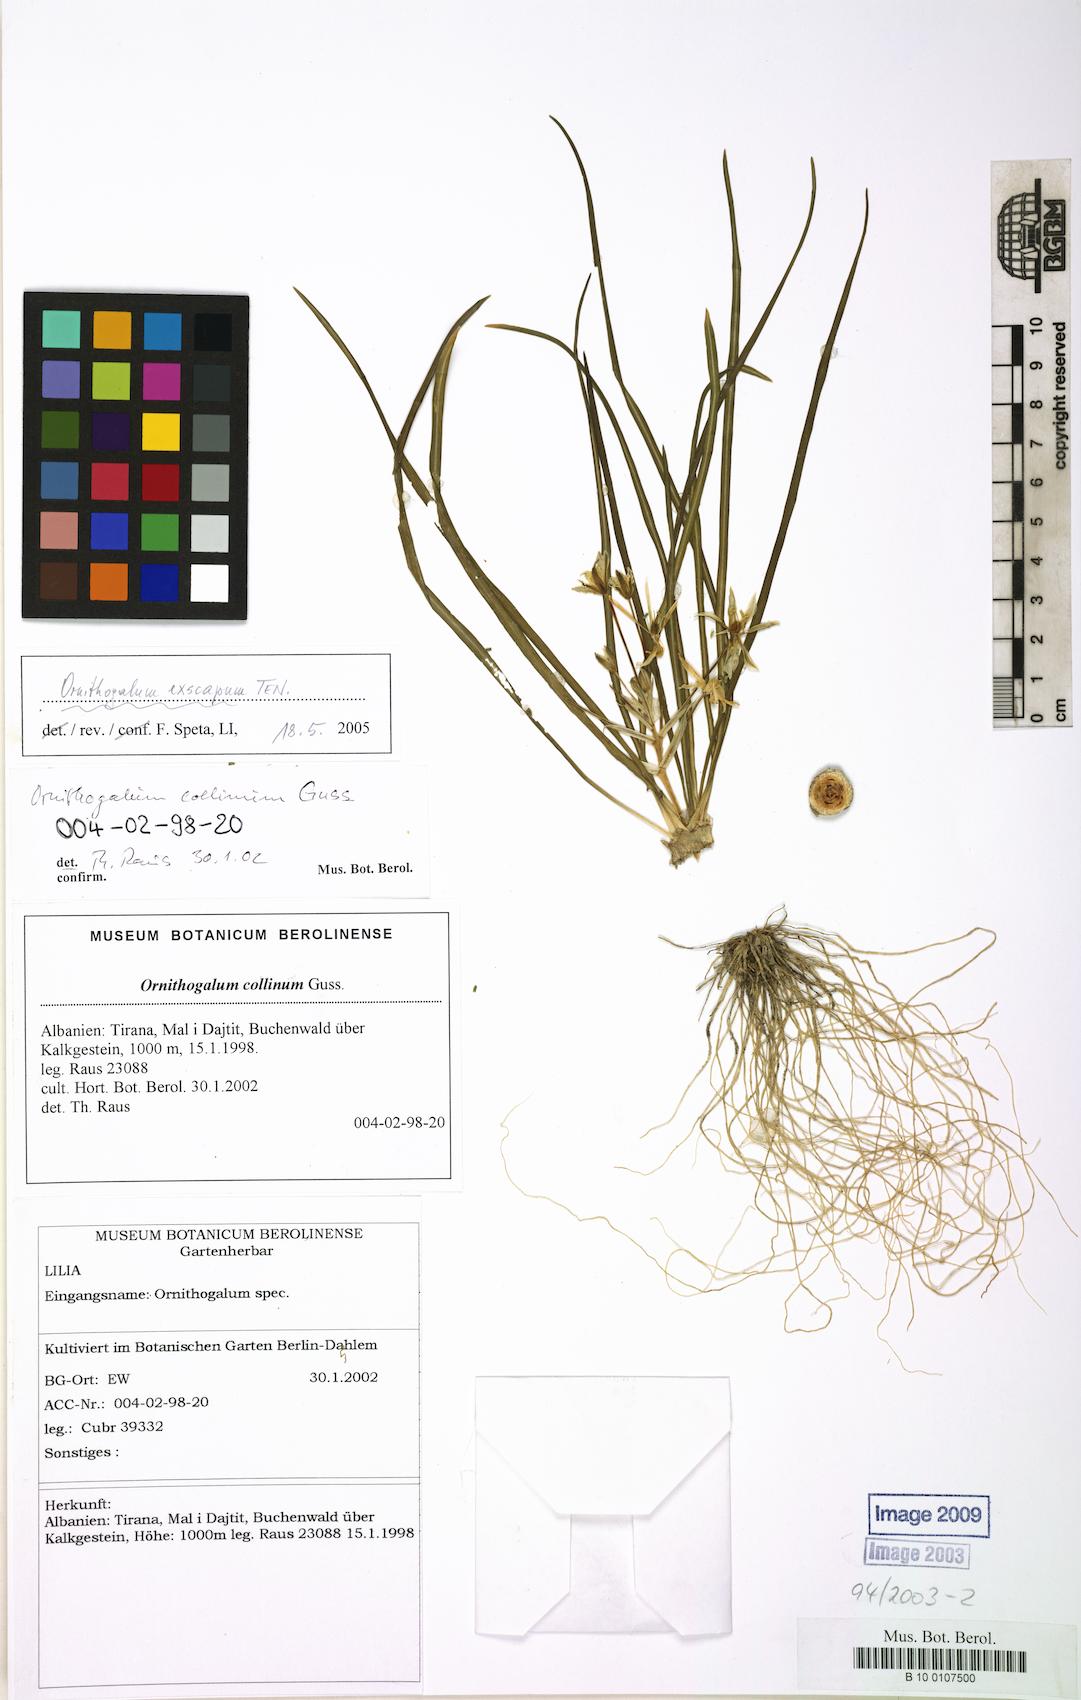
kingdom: Plantae
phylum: Tracheophyta
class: Liliopsida
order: Asparagales
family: Asparagaceae
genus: Ornithogalum
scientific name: Ornithogalum exscapum
